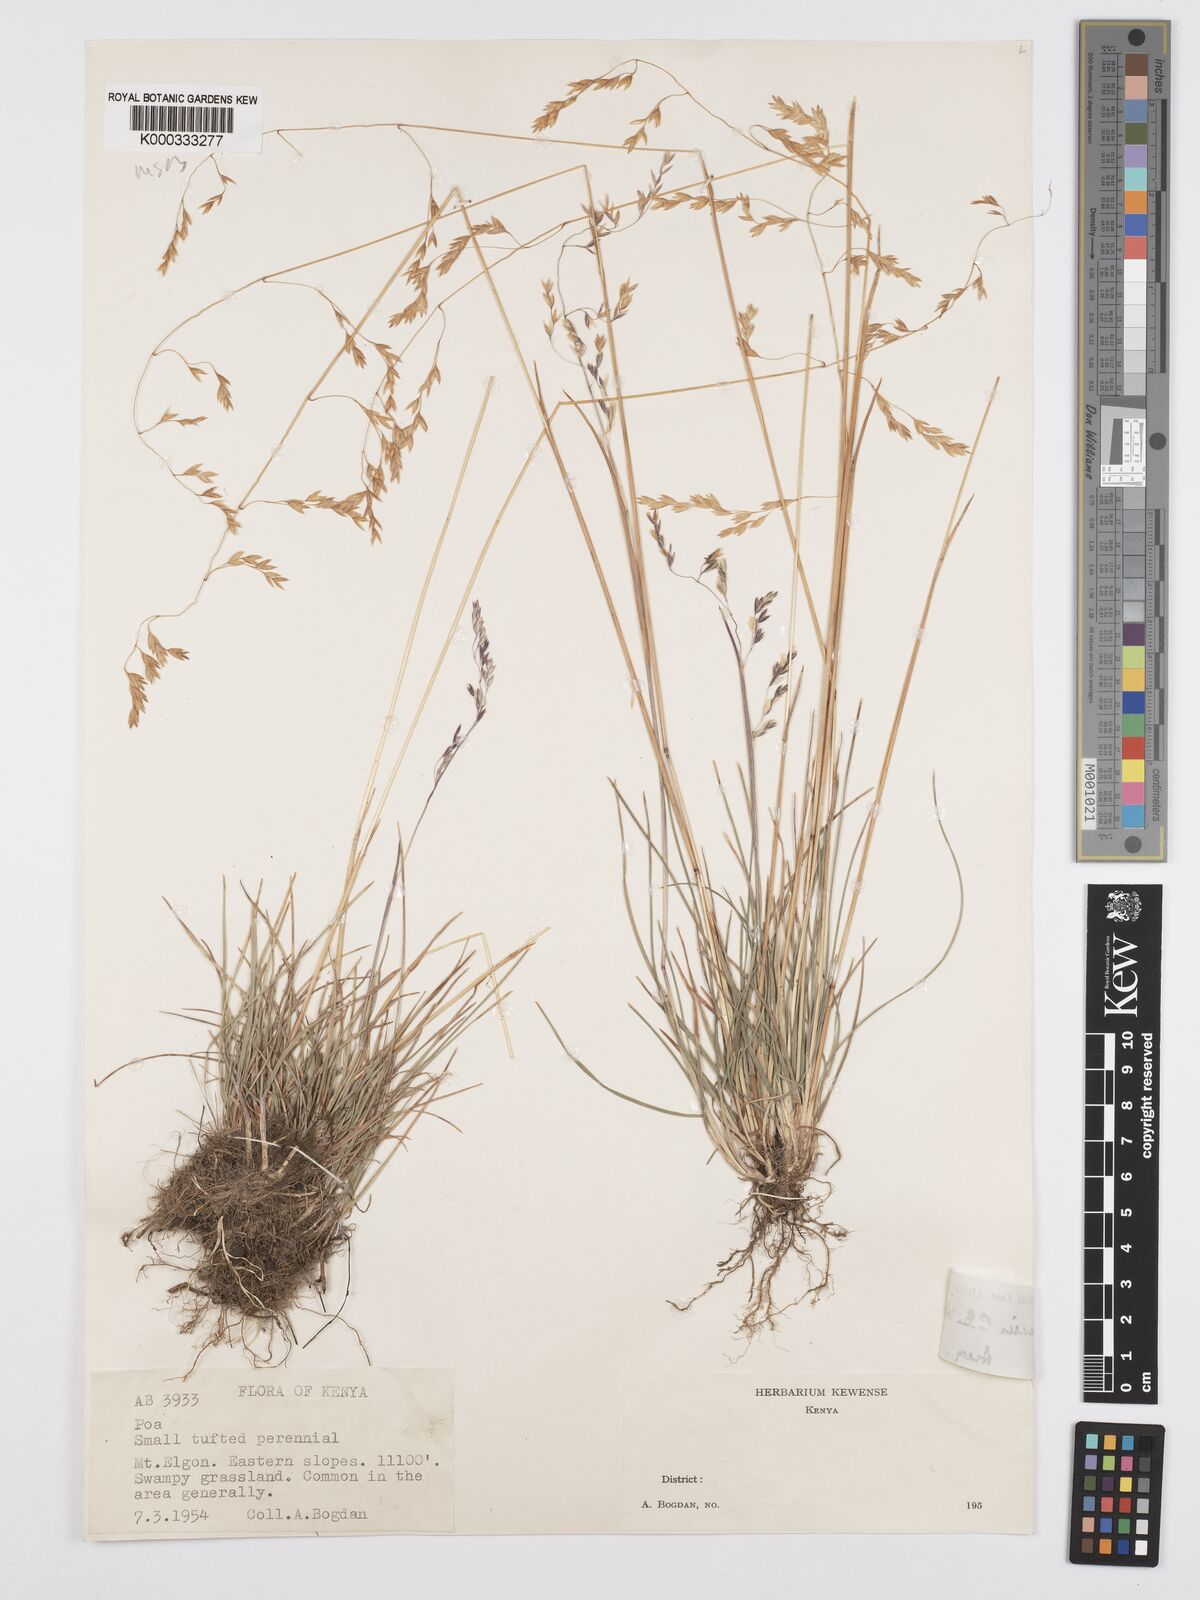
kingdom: Plantae
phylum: Tracheophyta
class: Liliopsida
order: Poales
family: Poaceae
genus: Poa
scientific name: Poa
